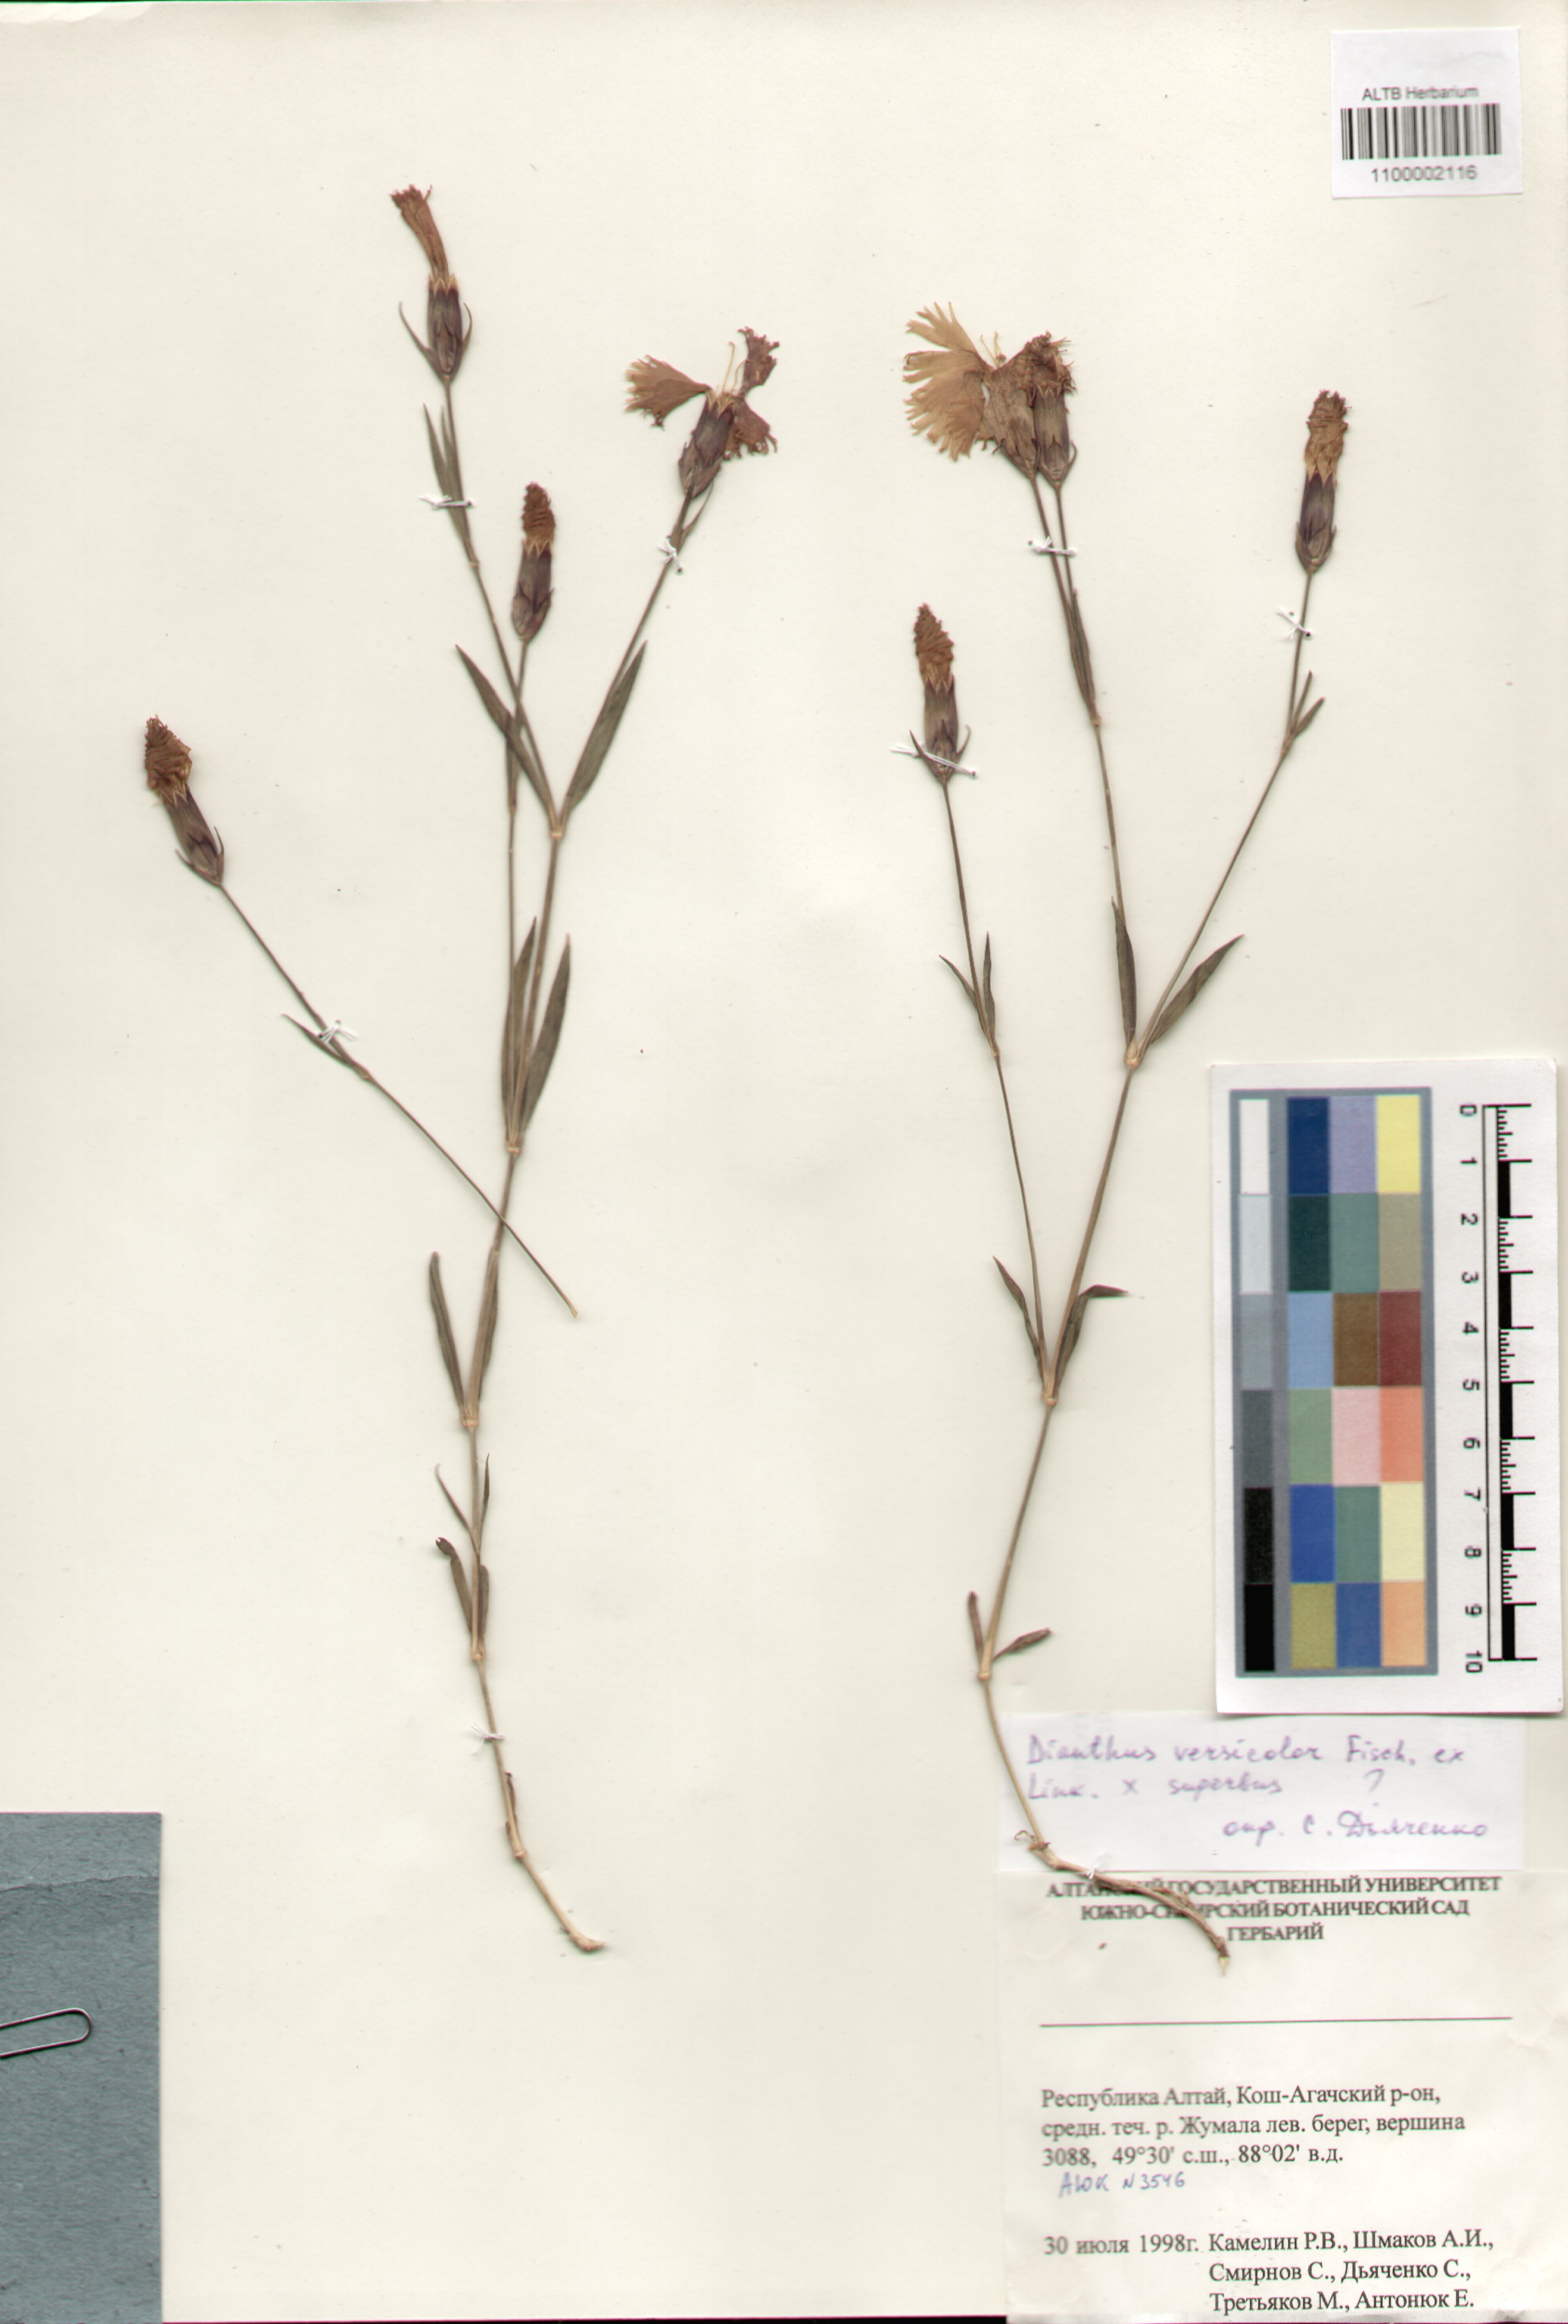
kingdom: Plantae
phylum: Tracheophyta
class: Magnoliopsida
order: Caryophyllales
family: Caryophyllaceae
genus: Dianthus
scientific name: Dianthus chinensis
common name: Rainbow pink
